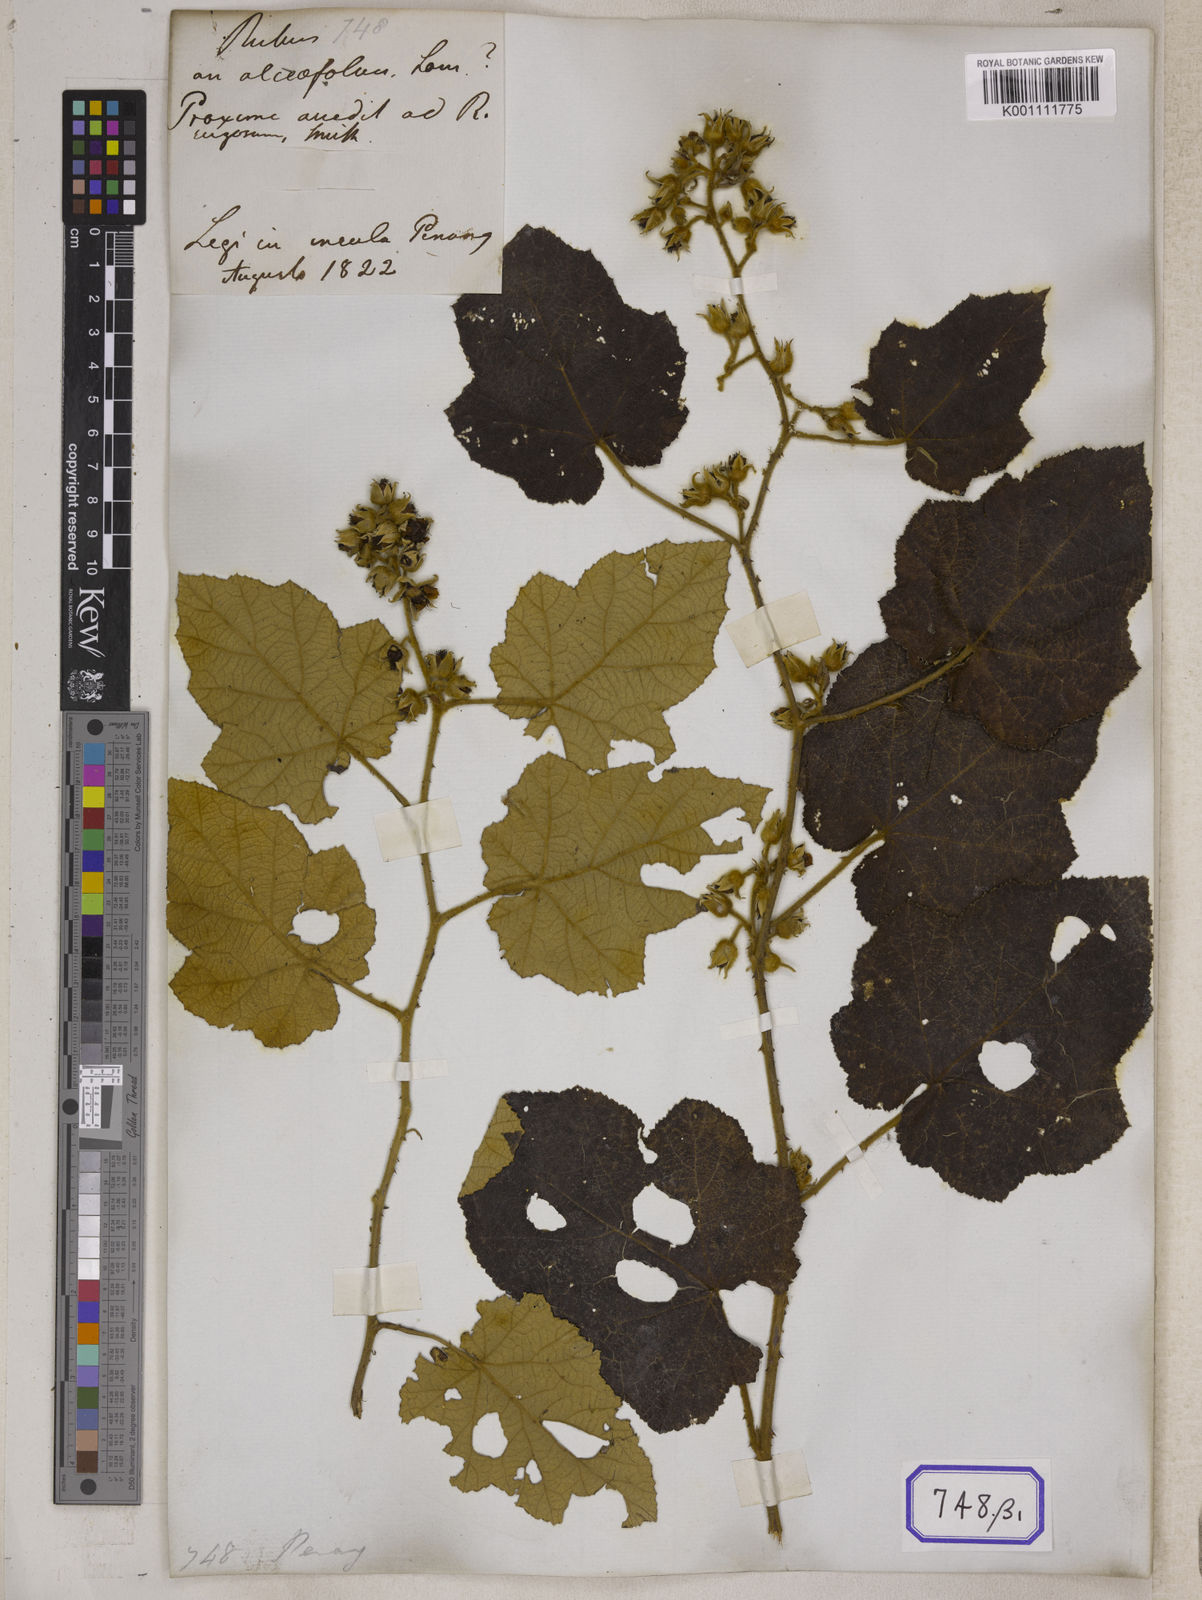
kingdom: Plantae
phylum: Tracheophyta
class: Magnoliopsida
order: Rosales
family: Rosaceae
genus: Rubus
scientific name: Rubus
